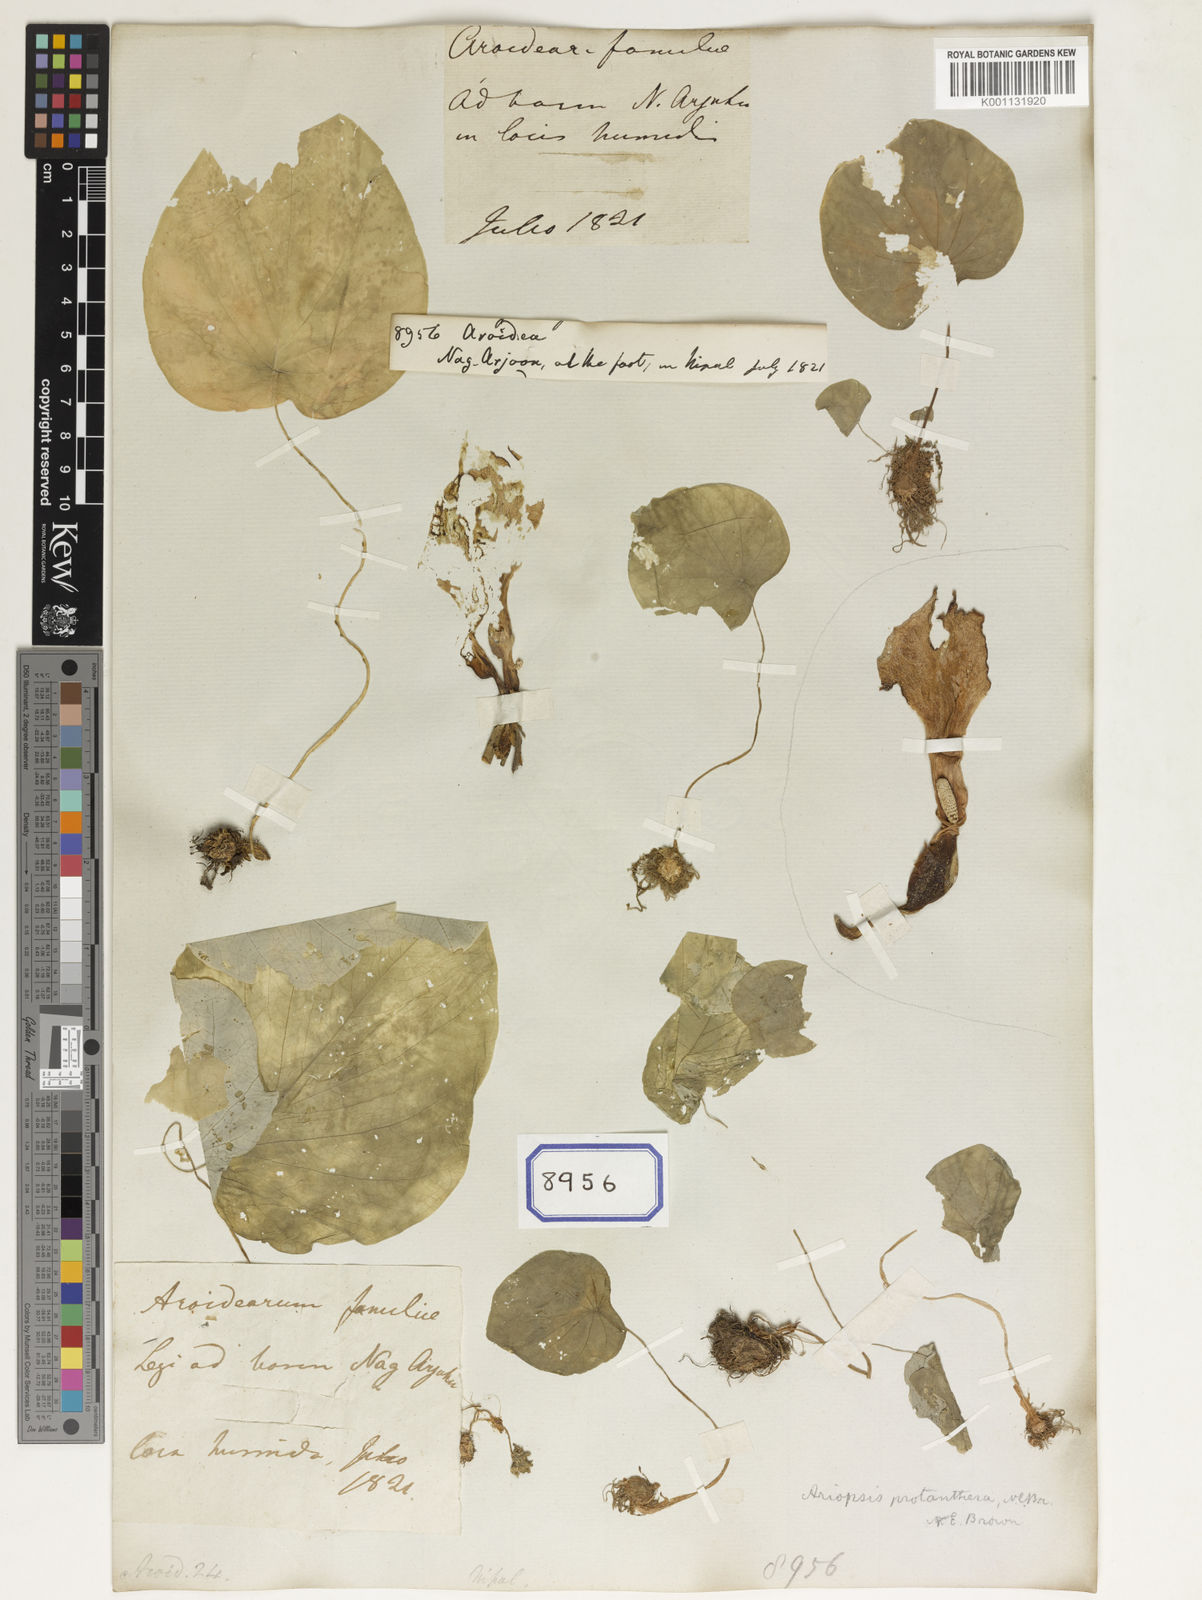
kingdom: Plantae
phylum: Tracheophyta
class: Liliopsida
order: Alismatales
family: Araceae
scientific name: Araceae
